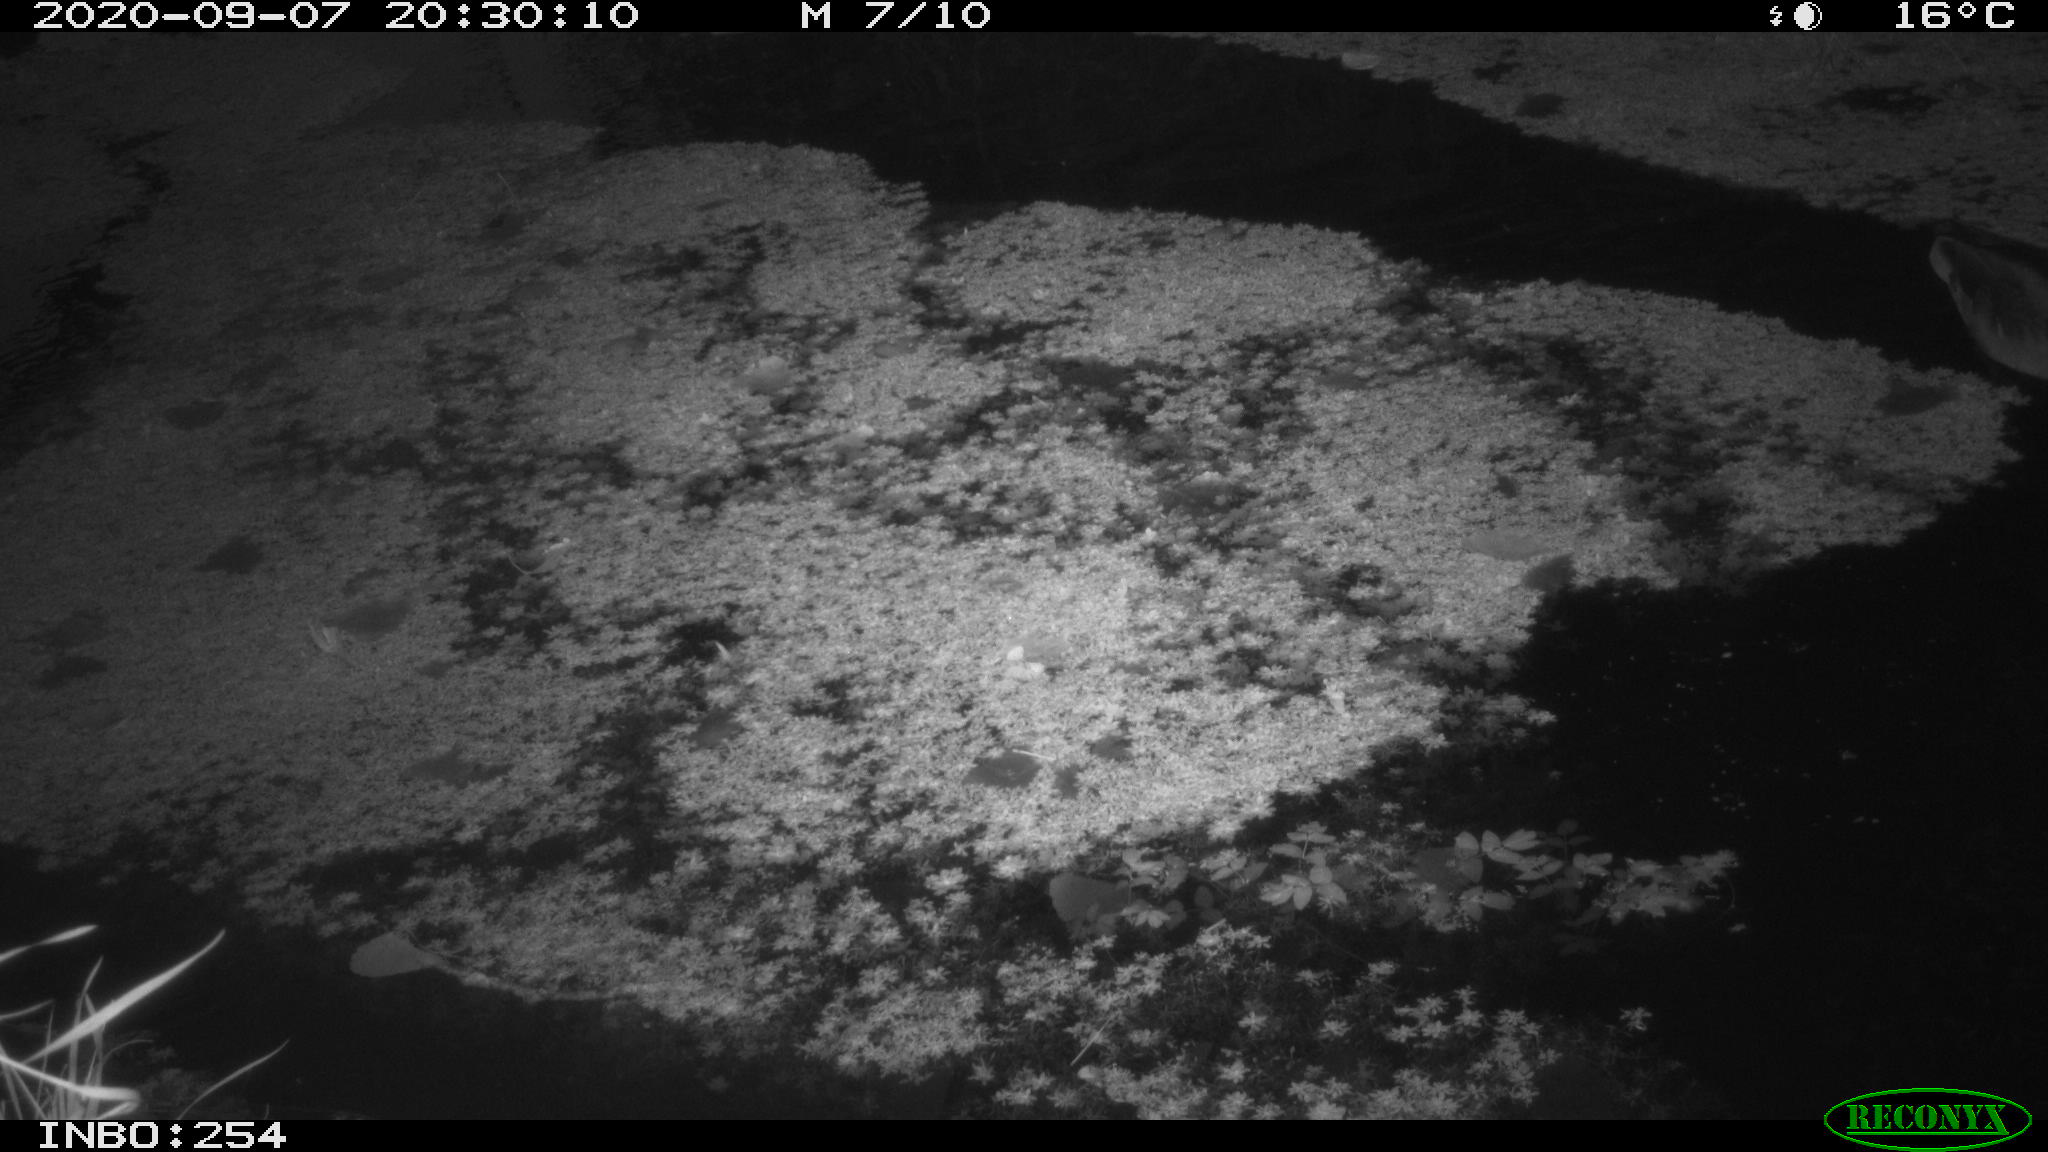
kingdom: Animalia
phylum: Chordata
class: Aves
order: Anseriformes
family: Anatidae
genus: Anas
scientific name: Anas platyrhynchos
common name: Mallard
